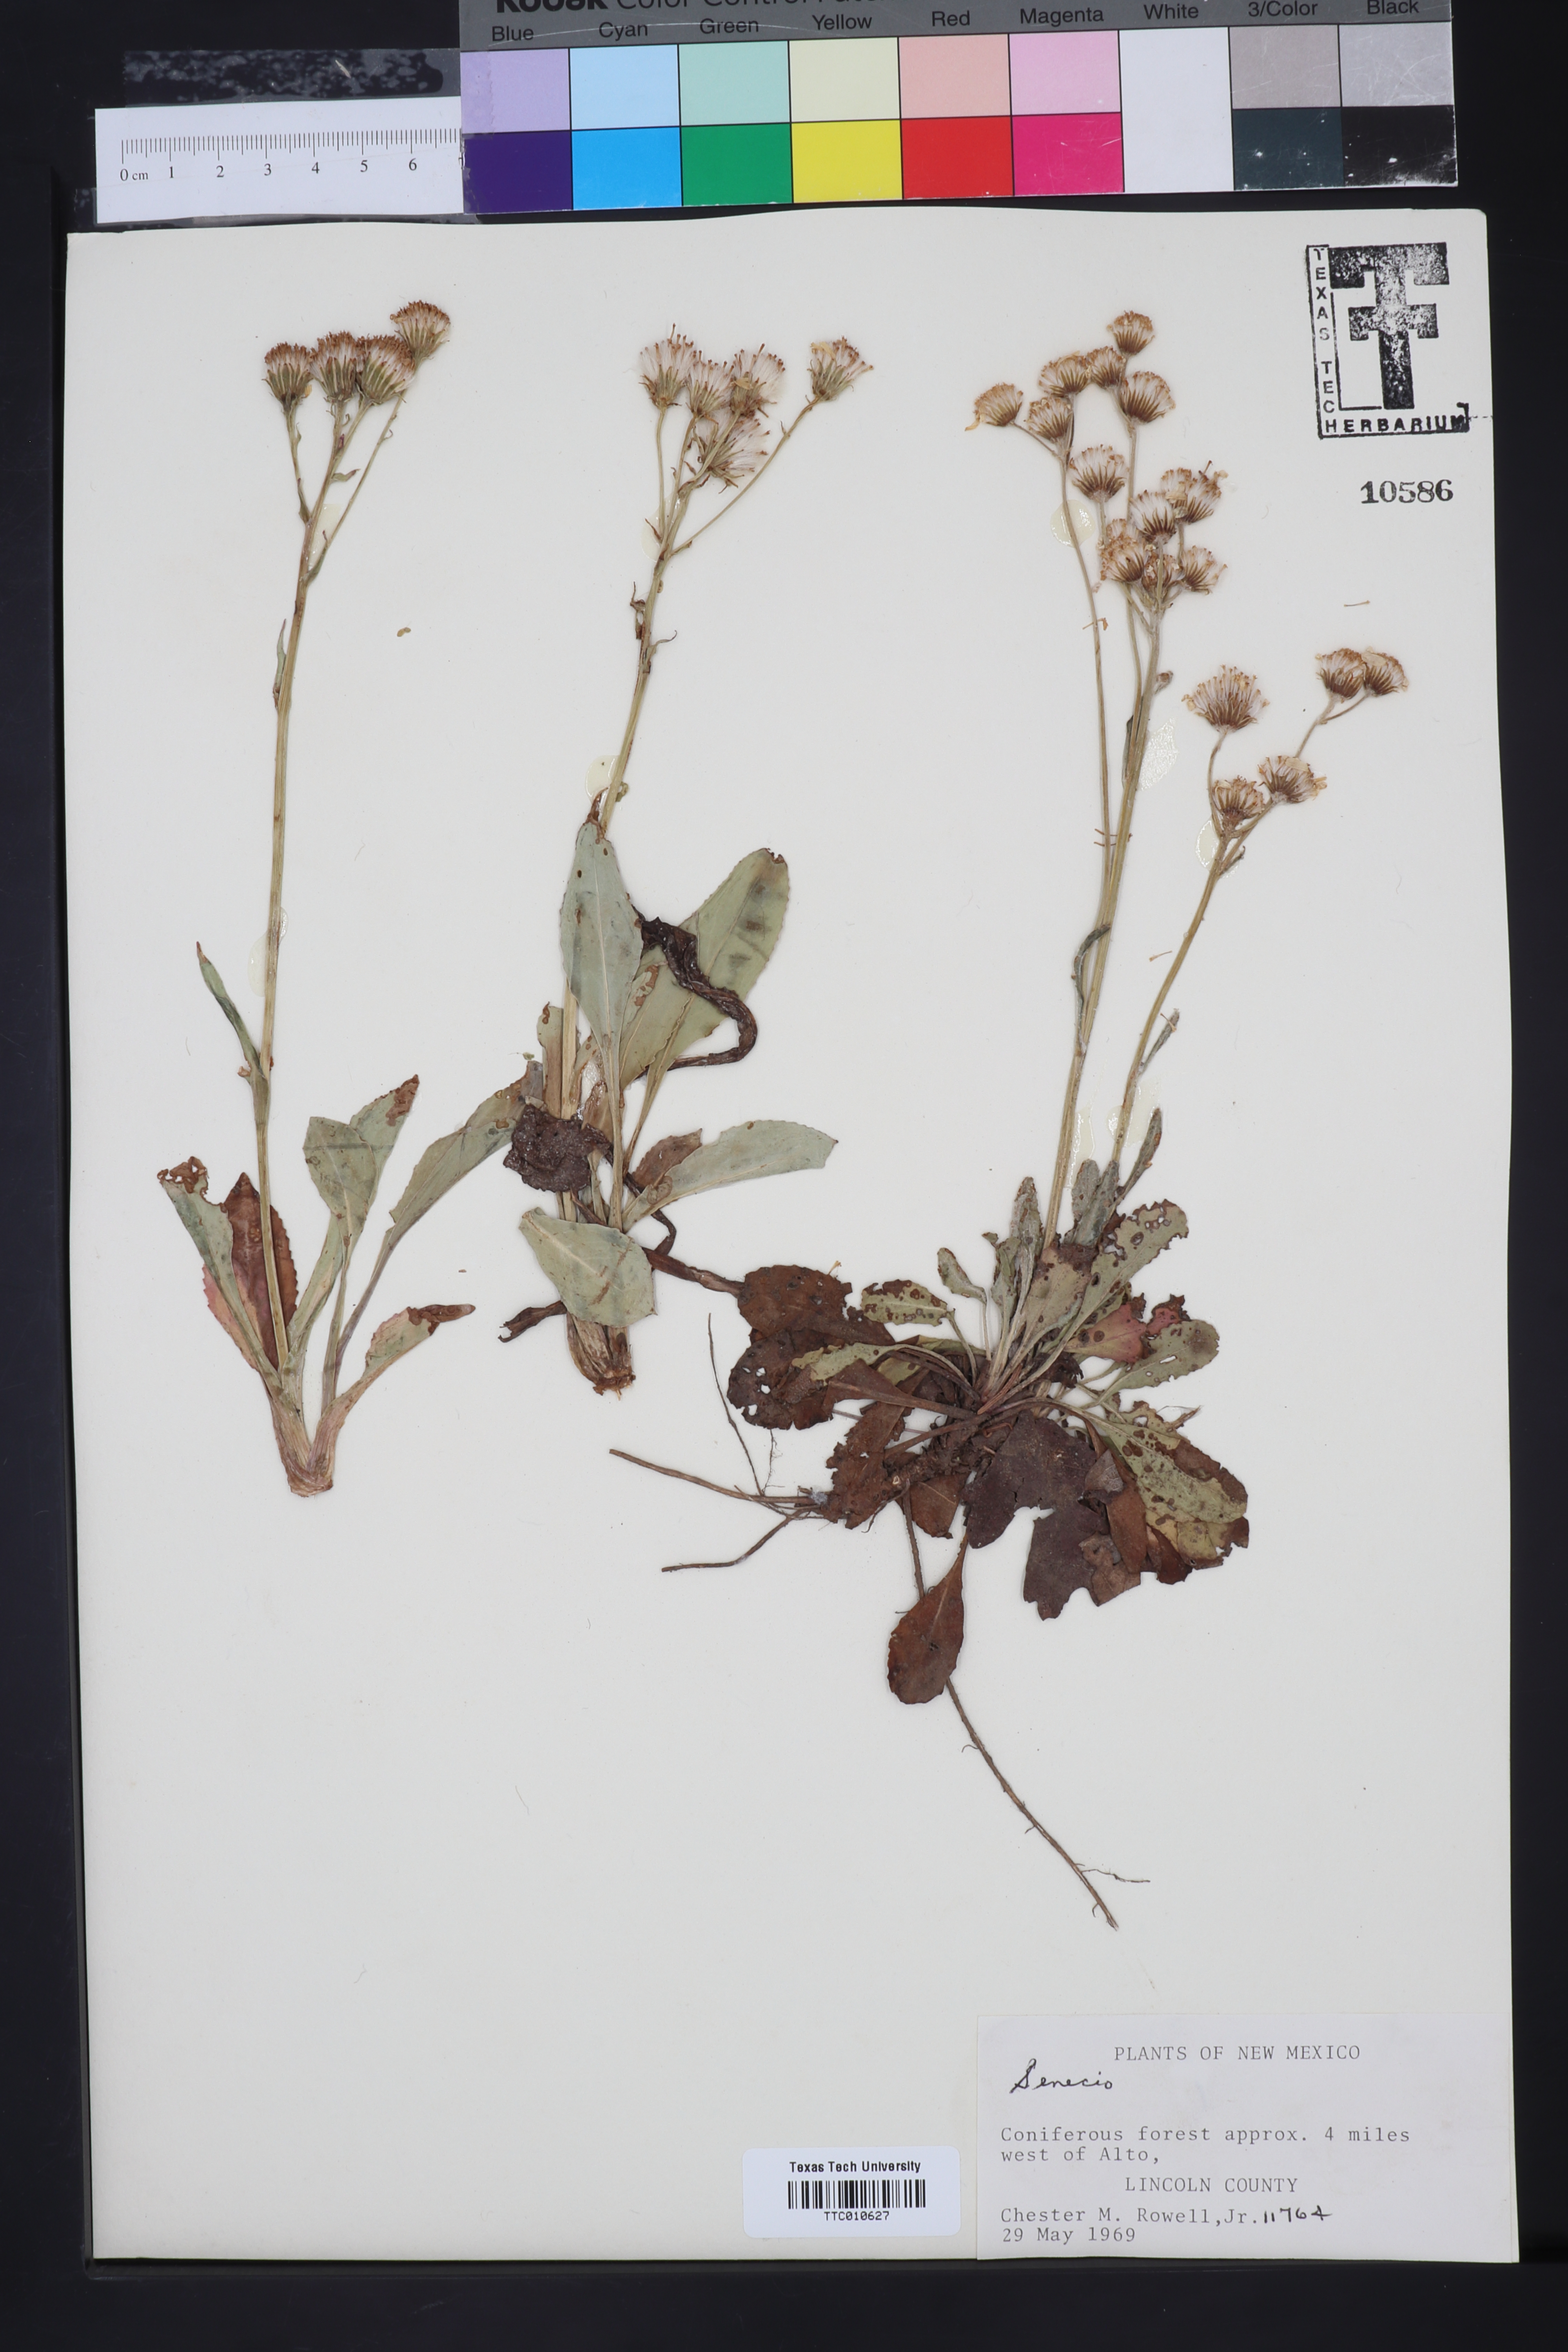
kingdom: Plantae
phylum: Tracheophyta
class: Magnoliopsida
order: Asterales
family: Asteraceae
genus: Senecio
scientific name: Senecio
